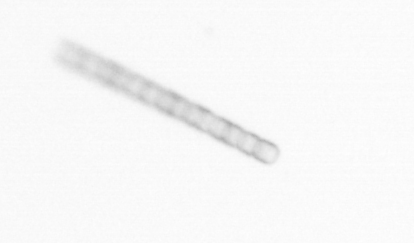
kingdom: Chromista
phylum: Ochrophyta
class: Bacillariophyceae
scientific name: Bacillariophyceae
